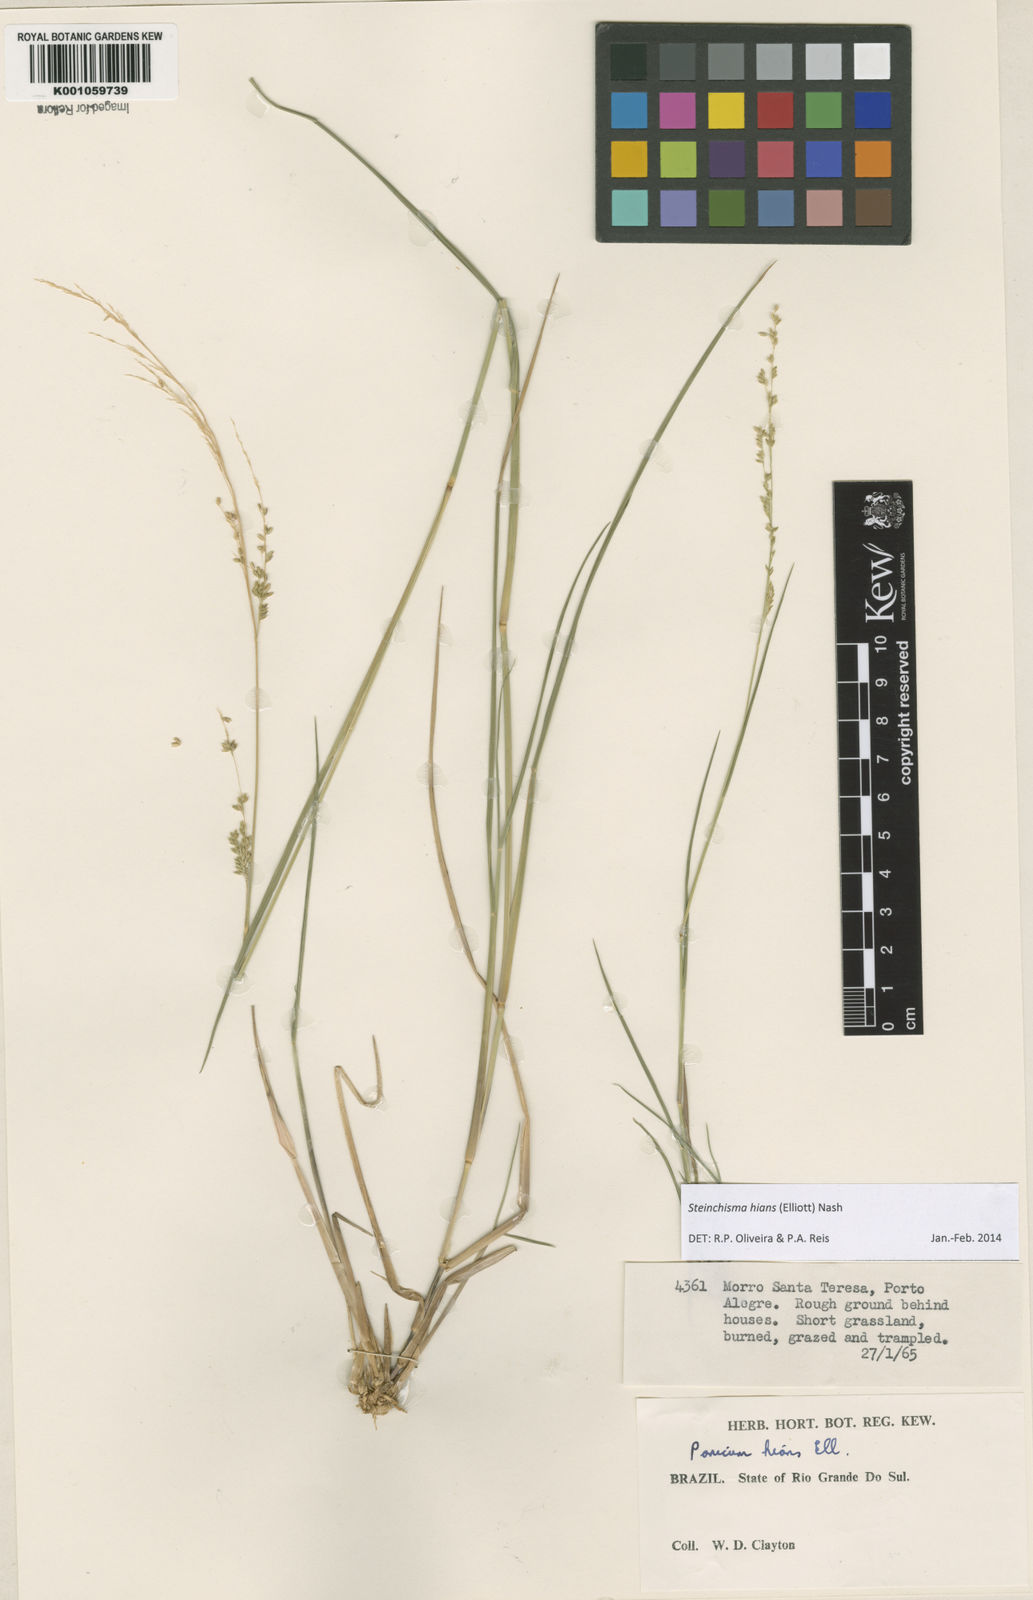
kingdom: Plantae
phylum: Tracheophyta
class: Liliopsida
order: Poales
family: Poaceae
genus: Steinchisma
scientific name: Steinchisma hians
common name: Gaping panic grass
